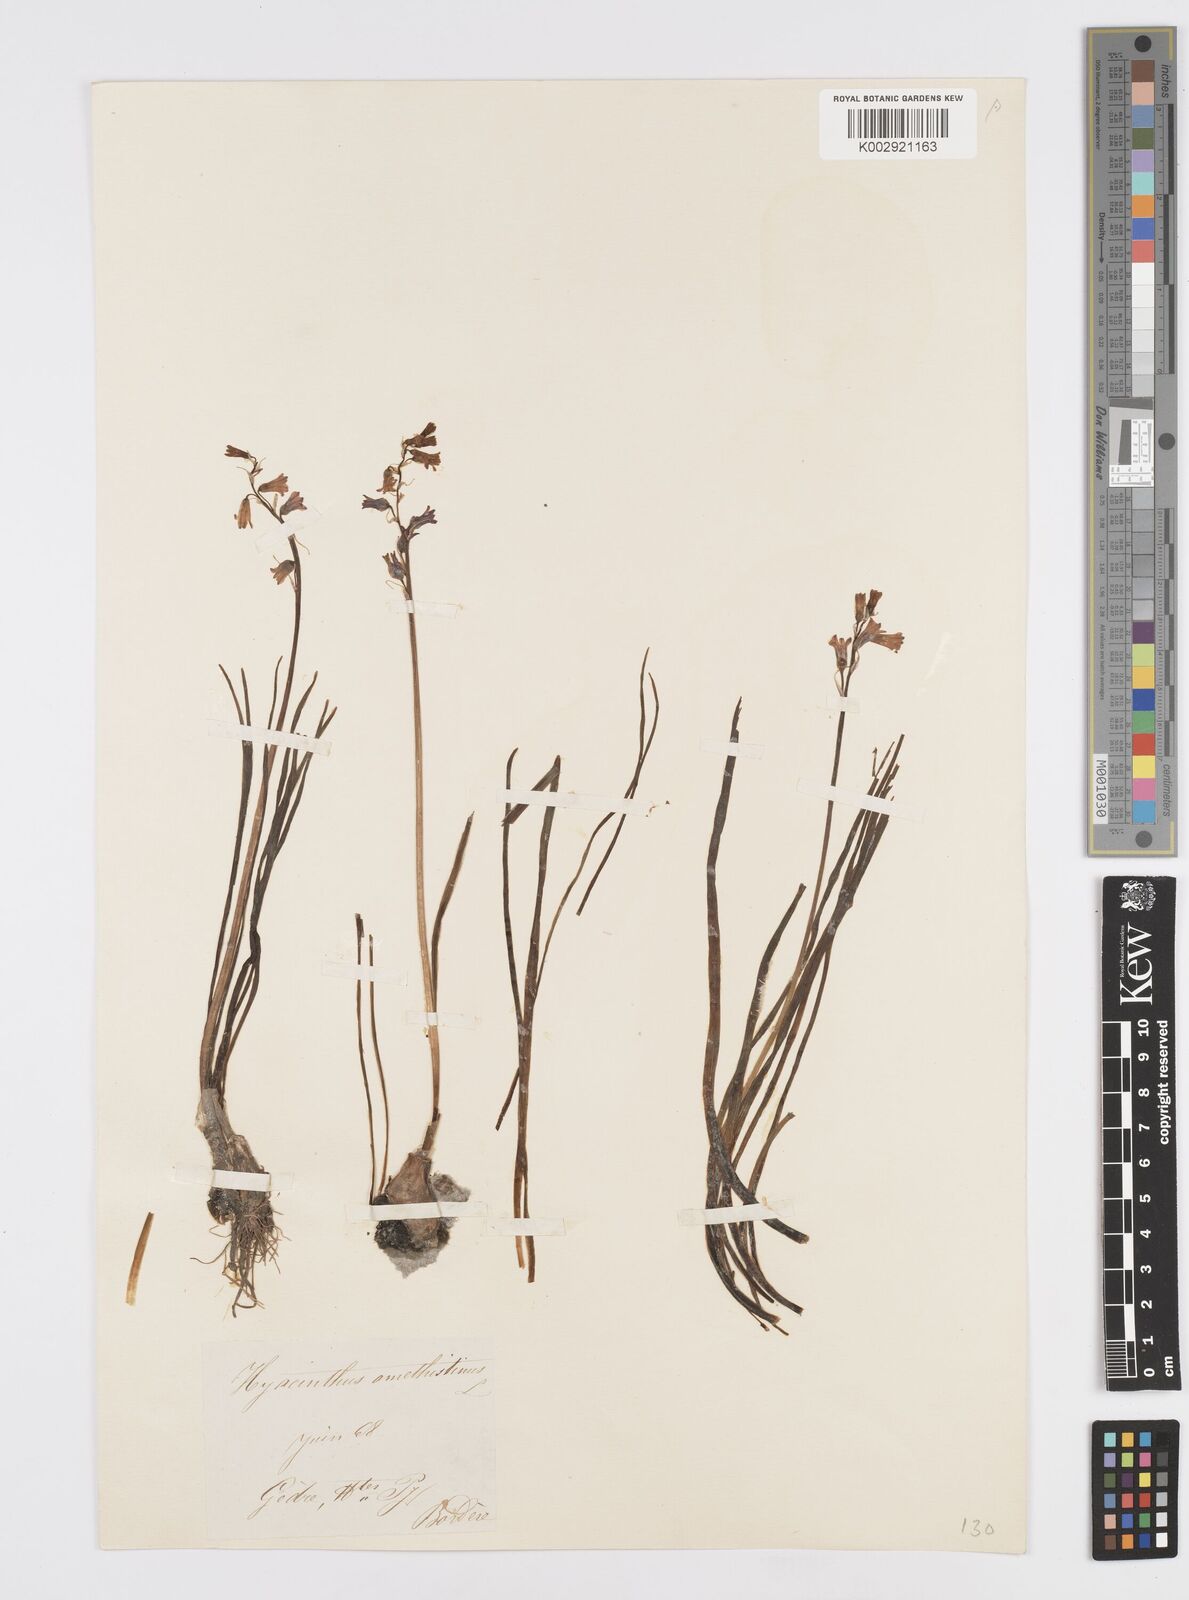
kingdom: Plantae
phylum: Tracheophyta
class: Liliopsida
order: Asparagales
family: Asparagaceae
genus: Brimeura
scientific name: Brimeura amethystina
